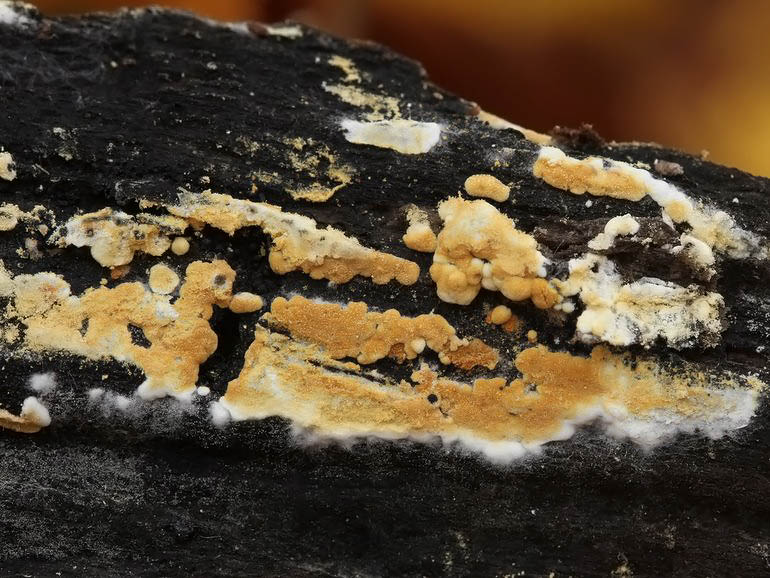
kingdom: Fungi
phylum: Basidiomycota
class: Agaricomycetes
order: Cantharellales
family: Botryobasidiaceae
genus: Botryobasidium
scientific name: Botryobasidium aureum
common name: gylden spindhinde
